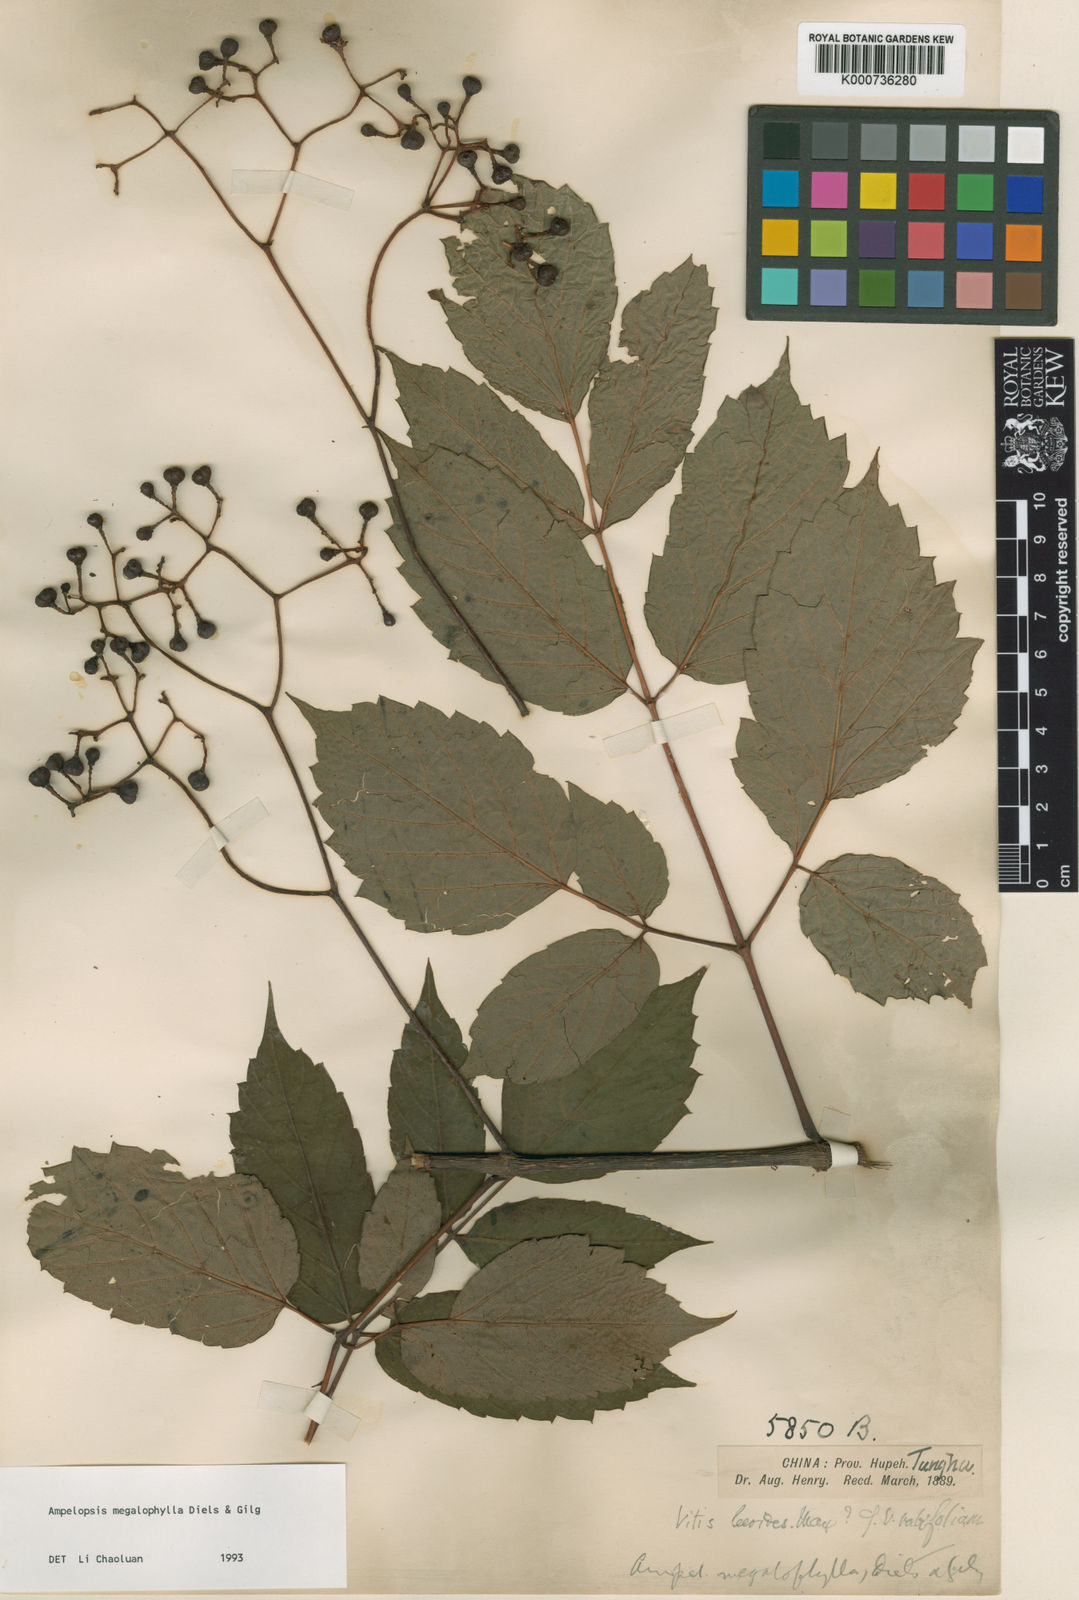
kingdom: Plantae
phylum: Tracheophyta
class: Magnoliopsida
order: Vitales
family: Vitaceae
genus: Nekemias
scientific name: Nekemias megalophylla
